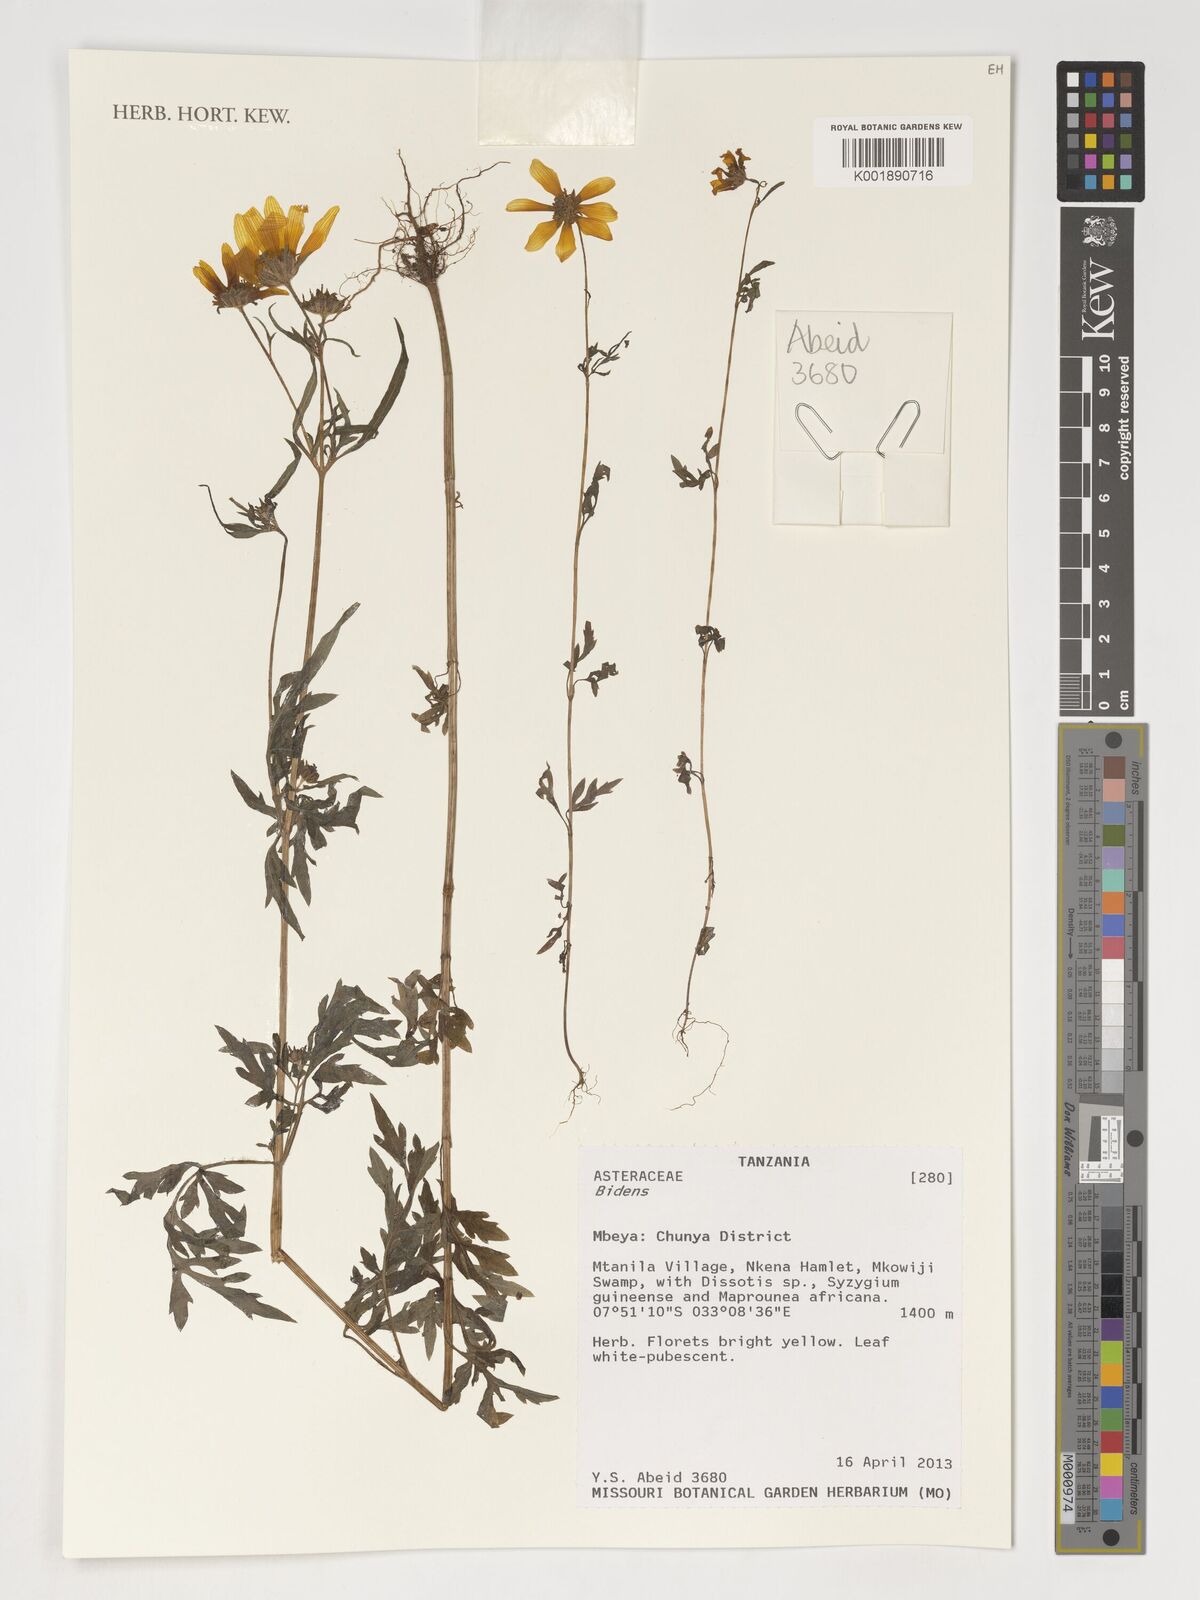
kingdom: Plantae
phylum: Tracheophyta
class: Magnoliopsida
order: Asterales
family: Asteraceae
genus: Bidens
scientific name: Bidens
